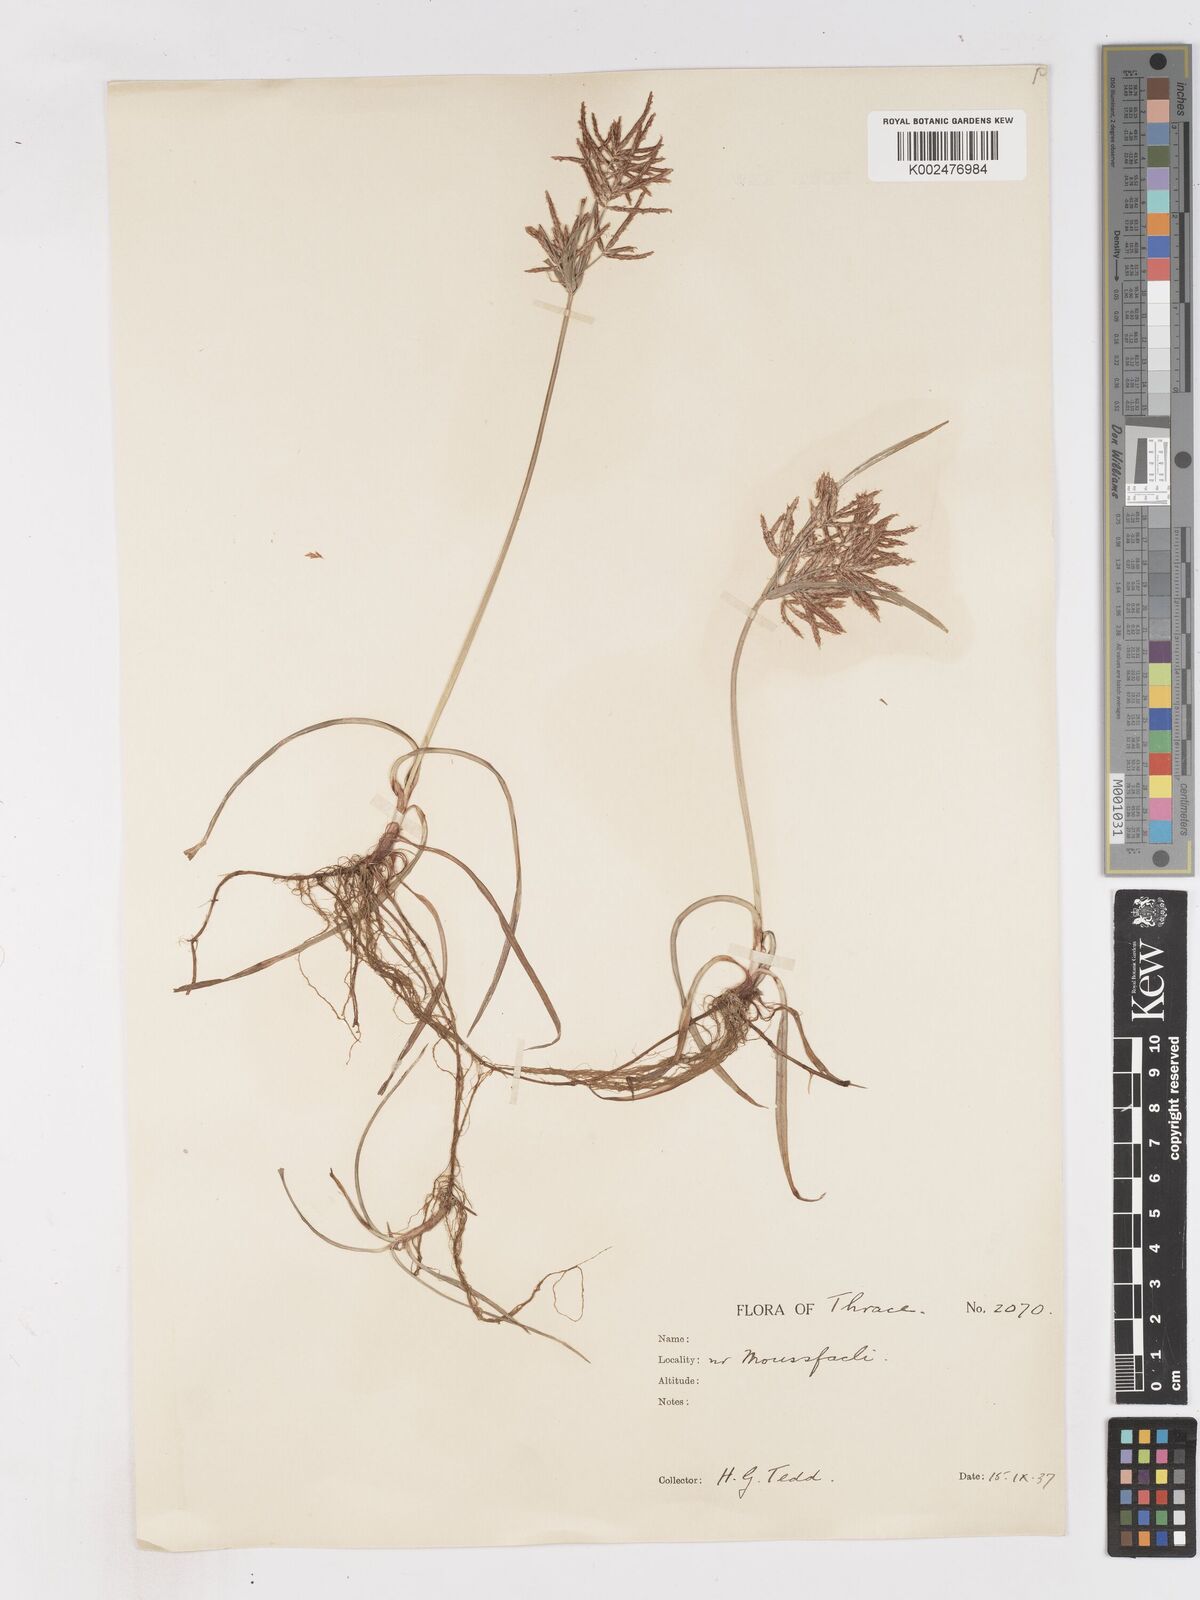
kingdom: Plantae
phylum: Tracheophyta
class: Liliopsida
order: Poales
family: Cyperaceae
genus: Cyperus
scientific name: Cyperus rotundus
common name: Nutgrass
